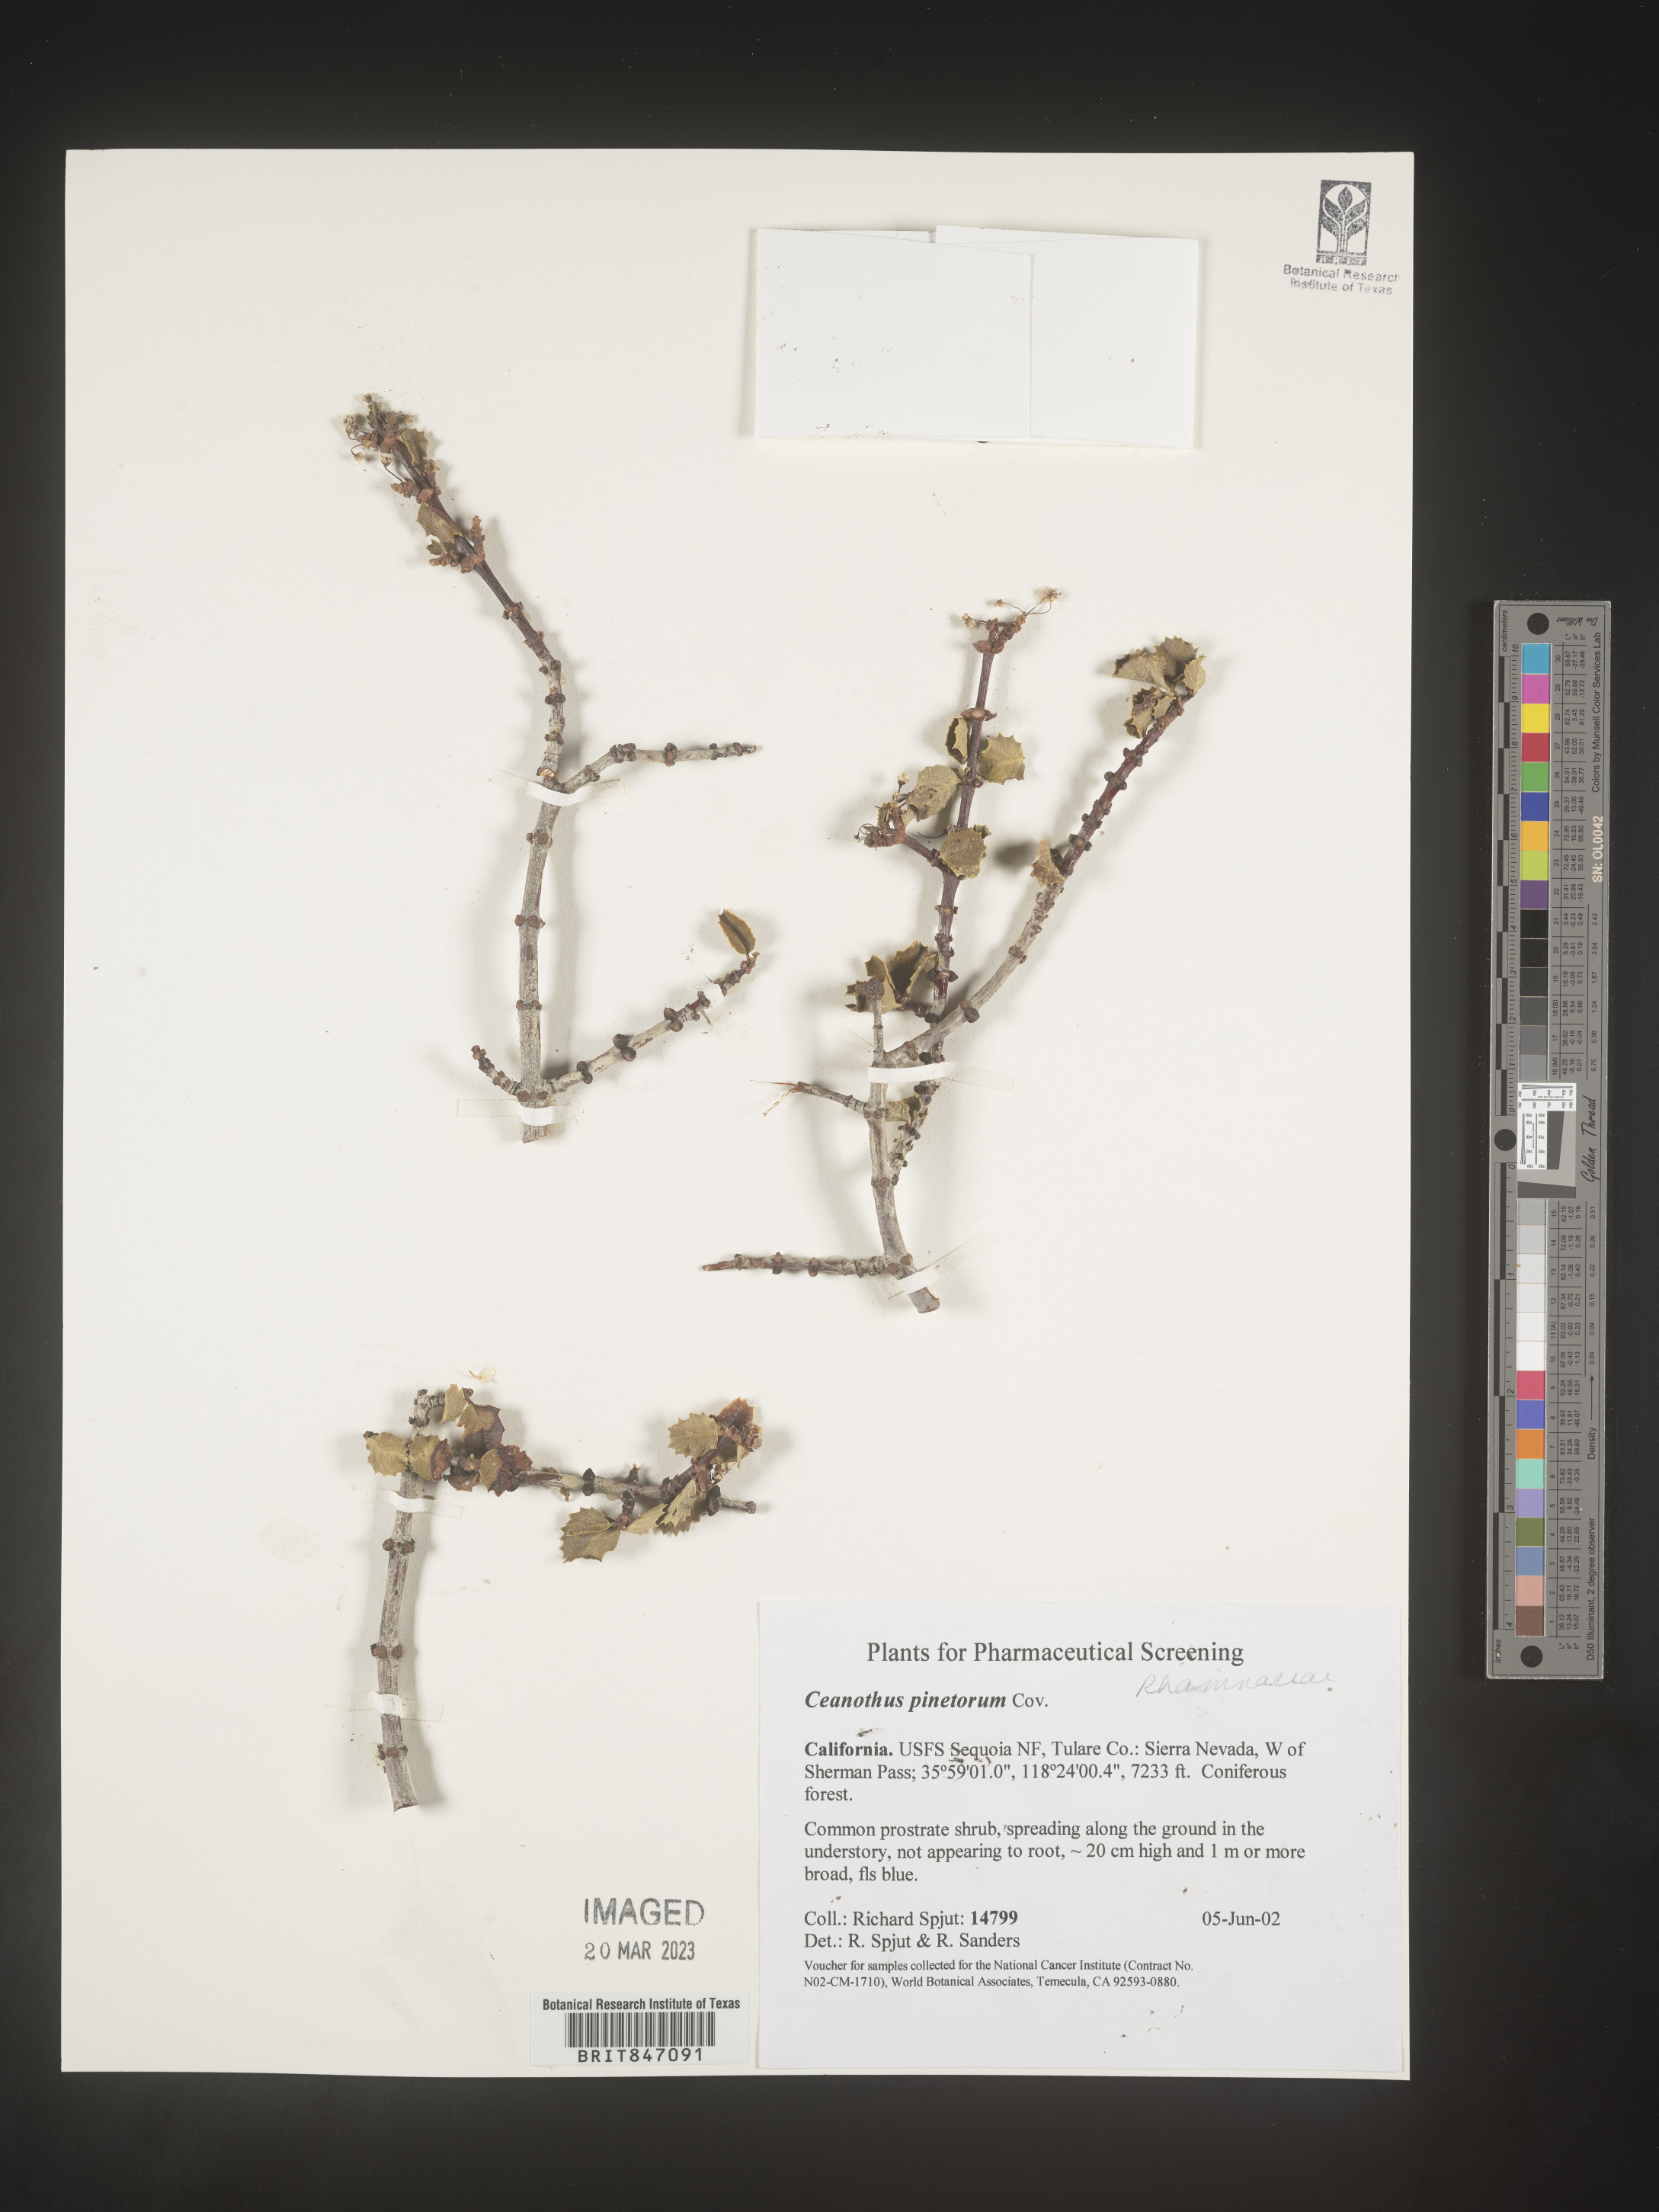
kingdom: Plantae
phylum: Tracheophyta
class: Magnoliopsida
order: Rosales
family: Rhamnaceae
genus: Ceanothus
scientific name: Ceanothus
